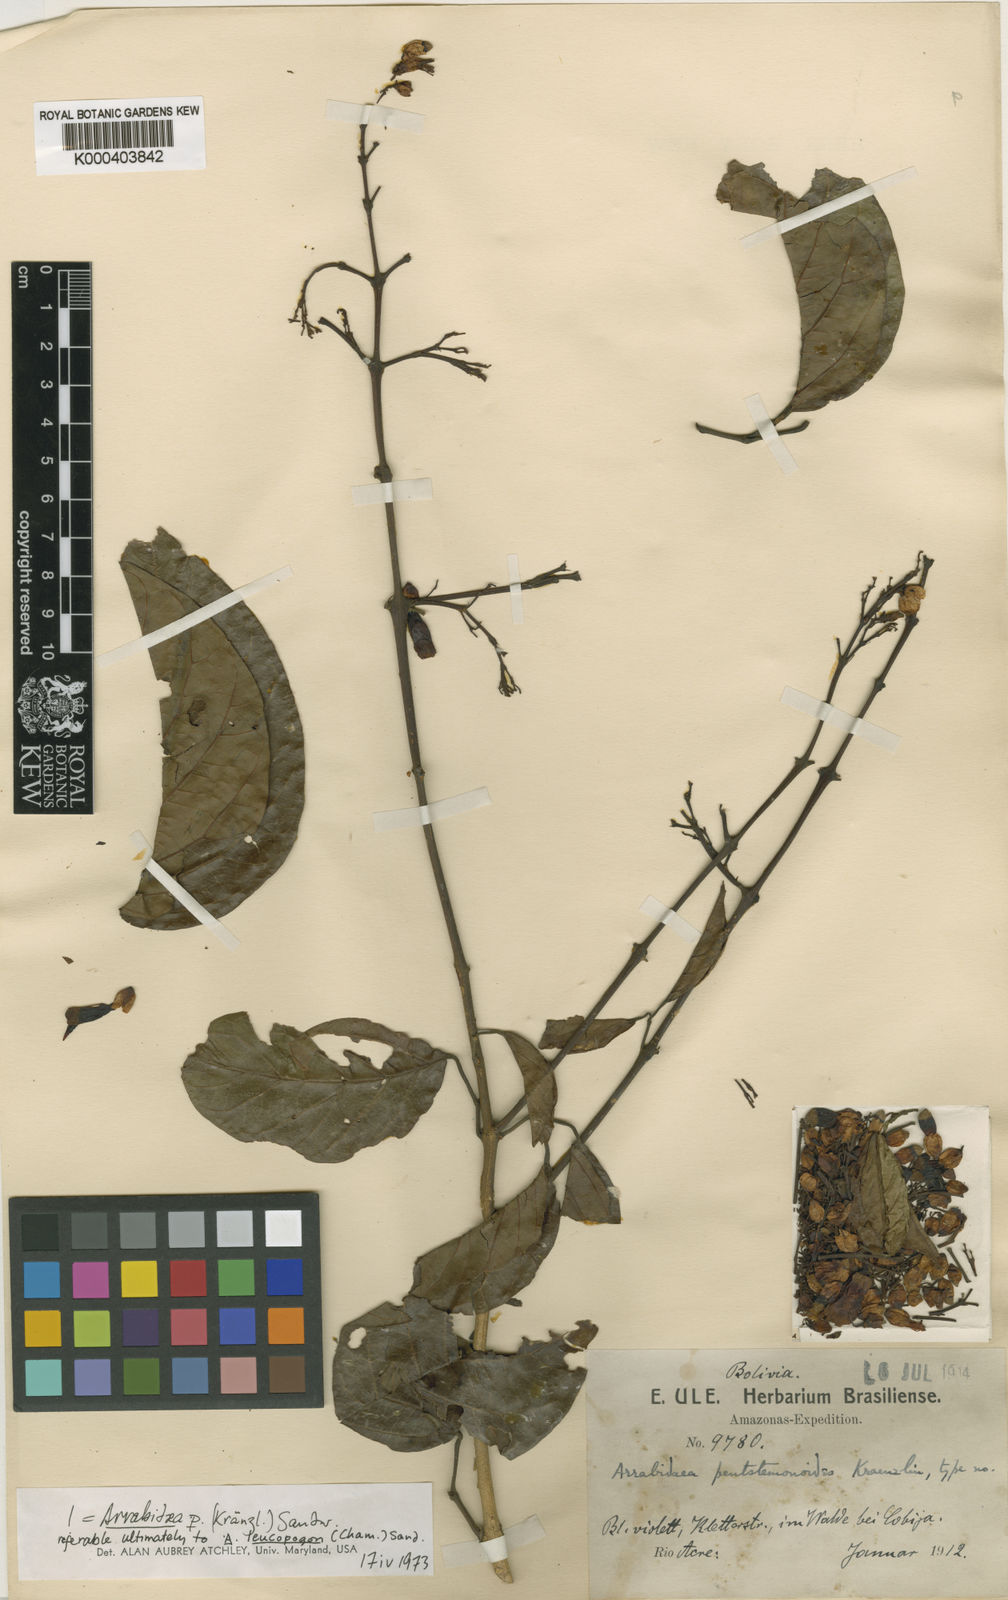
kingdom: Plantae
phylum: Tracheophyta
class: Magnoliopsida
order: Lamiales
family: Bignoniaceae
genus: Fridericia
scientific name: Fridericia patellifera
